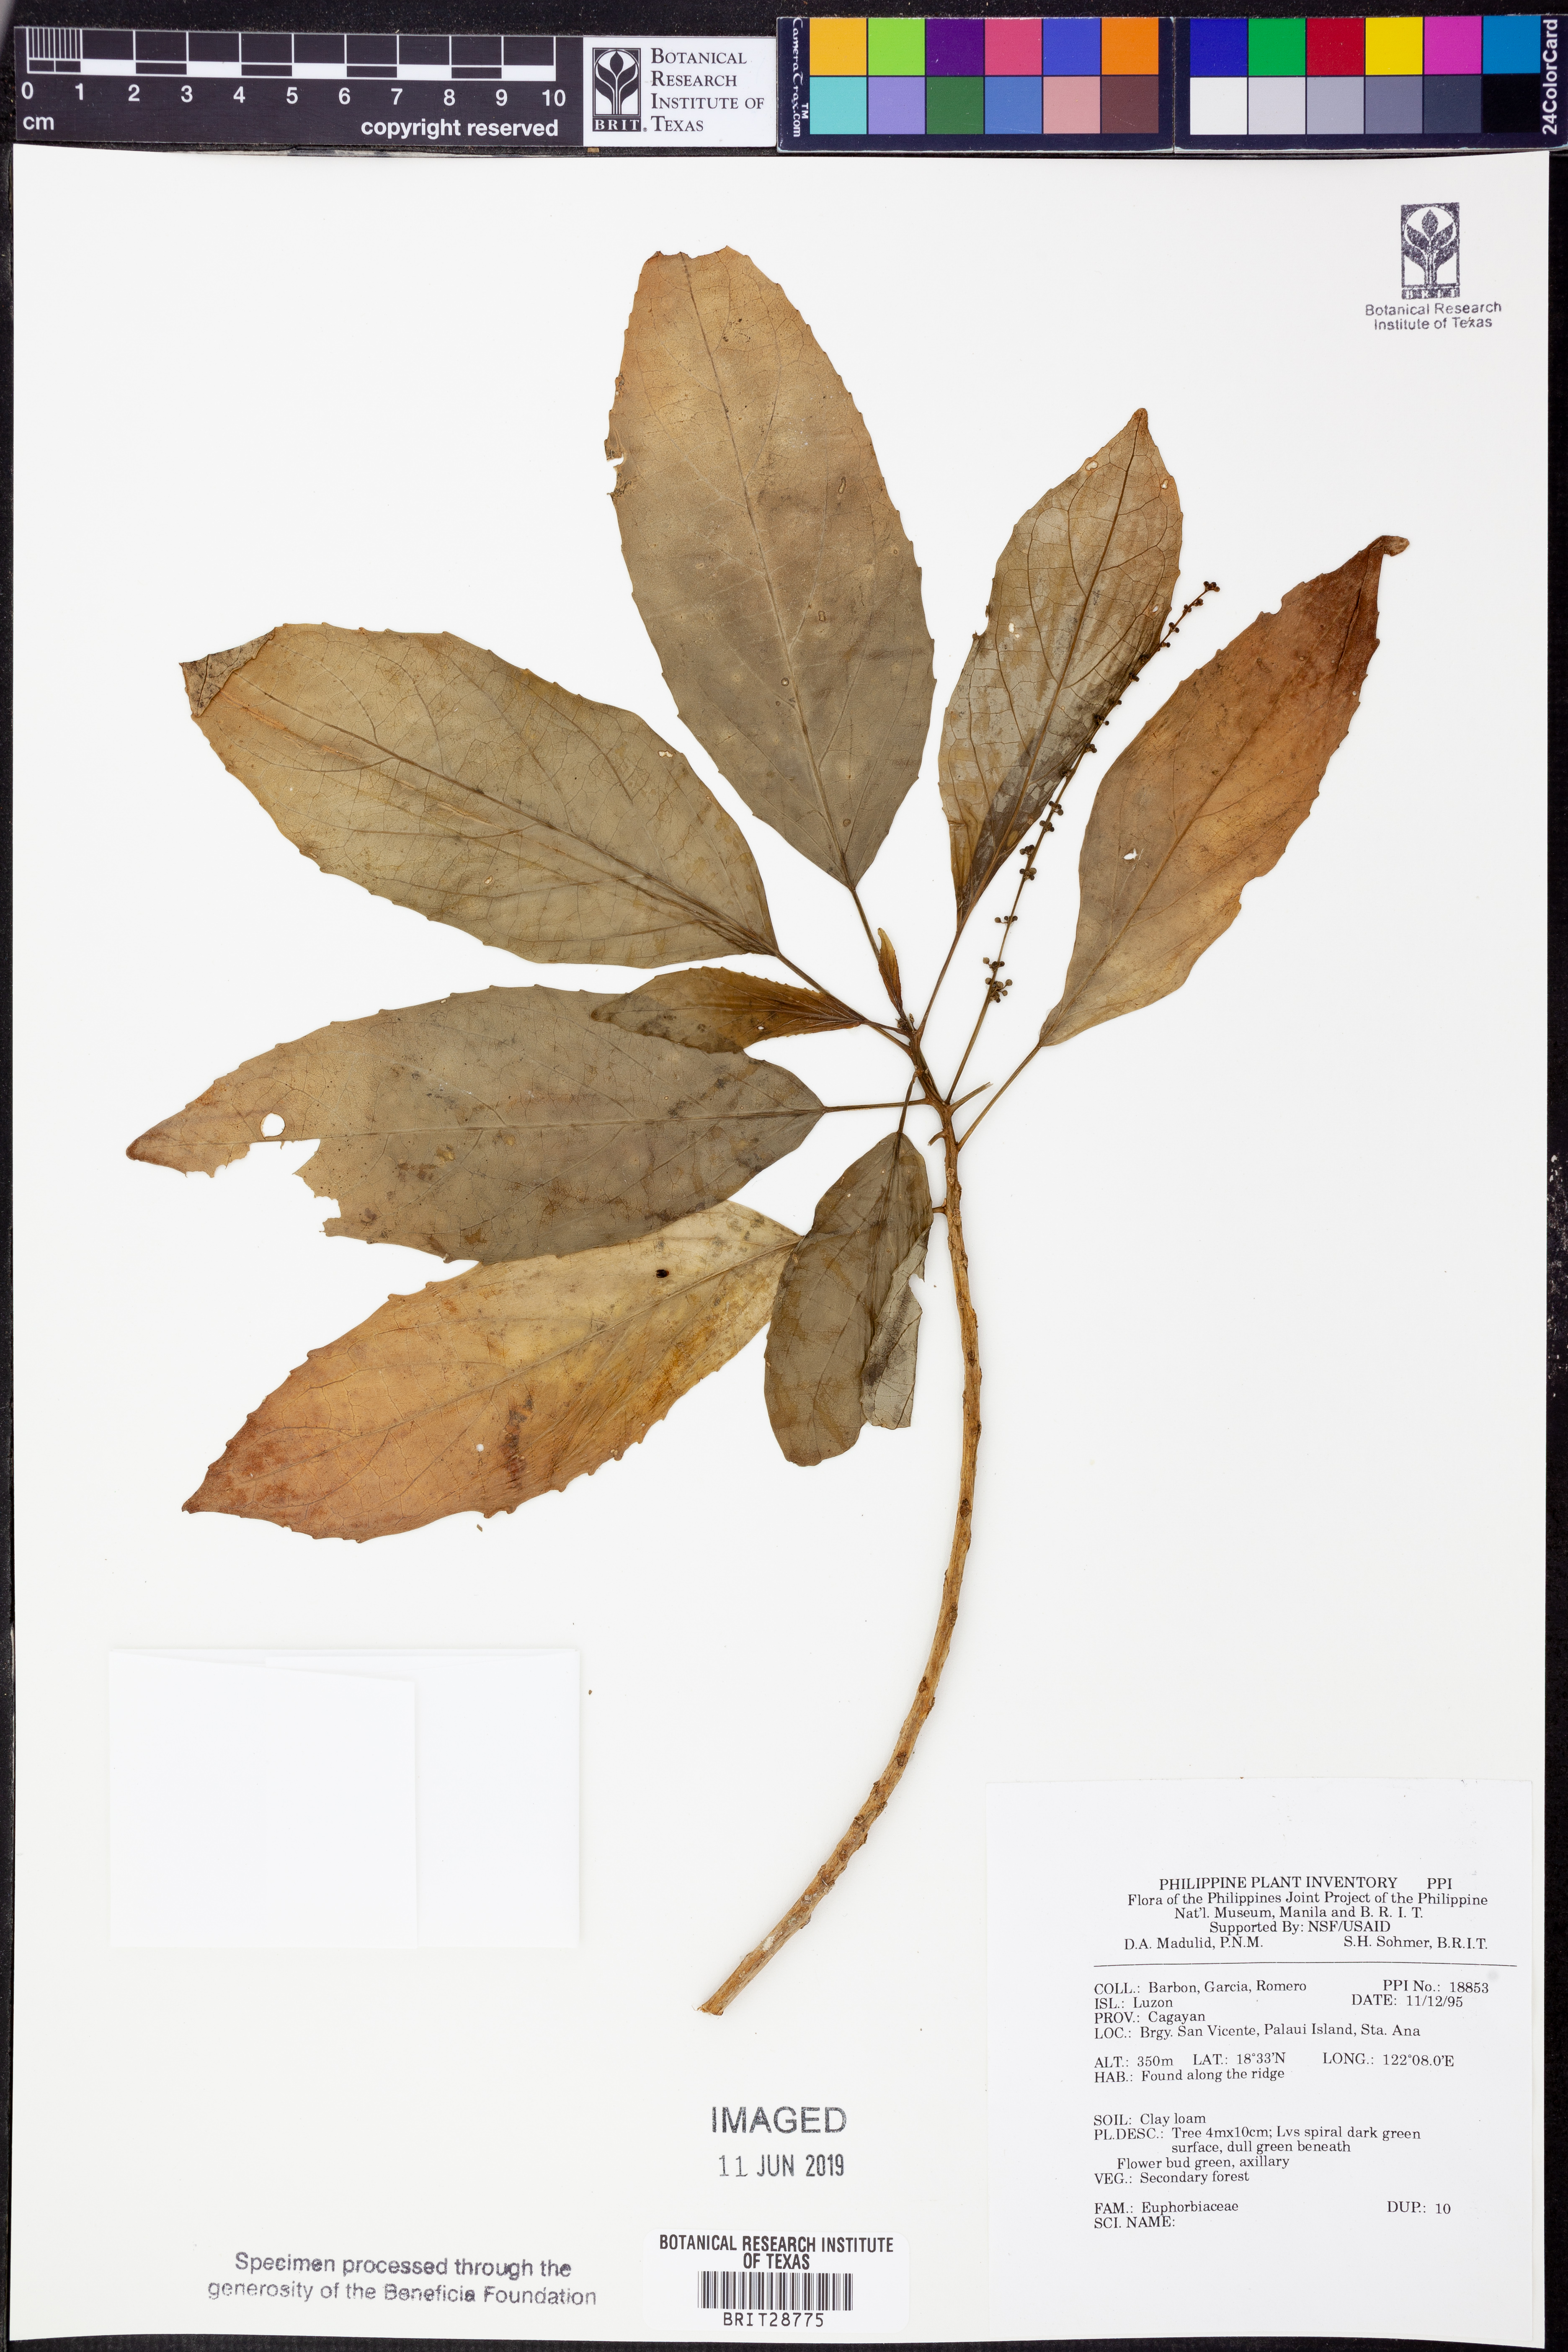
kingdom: Plantae
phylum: Tracheophyta
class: Magnoliopsida
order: Malpighiales
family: Euphorbiaceae
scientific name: Euphorbiaceae
